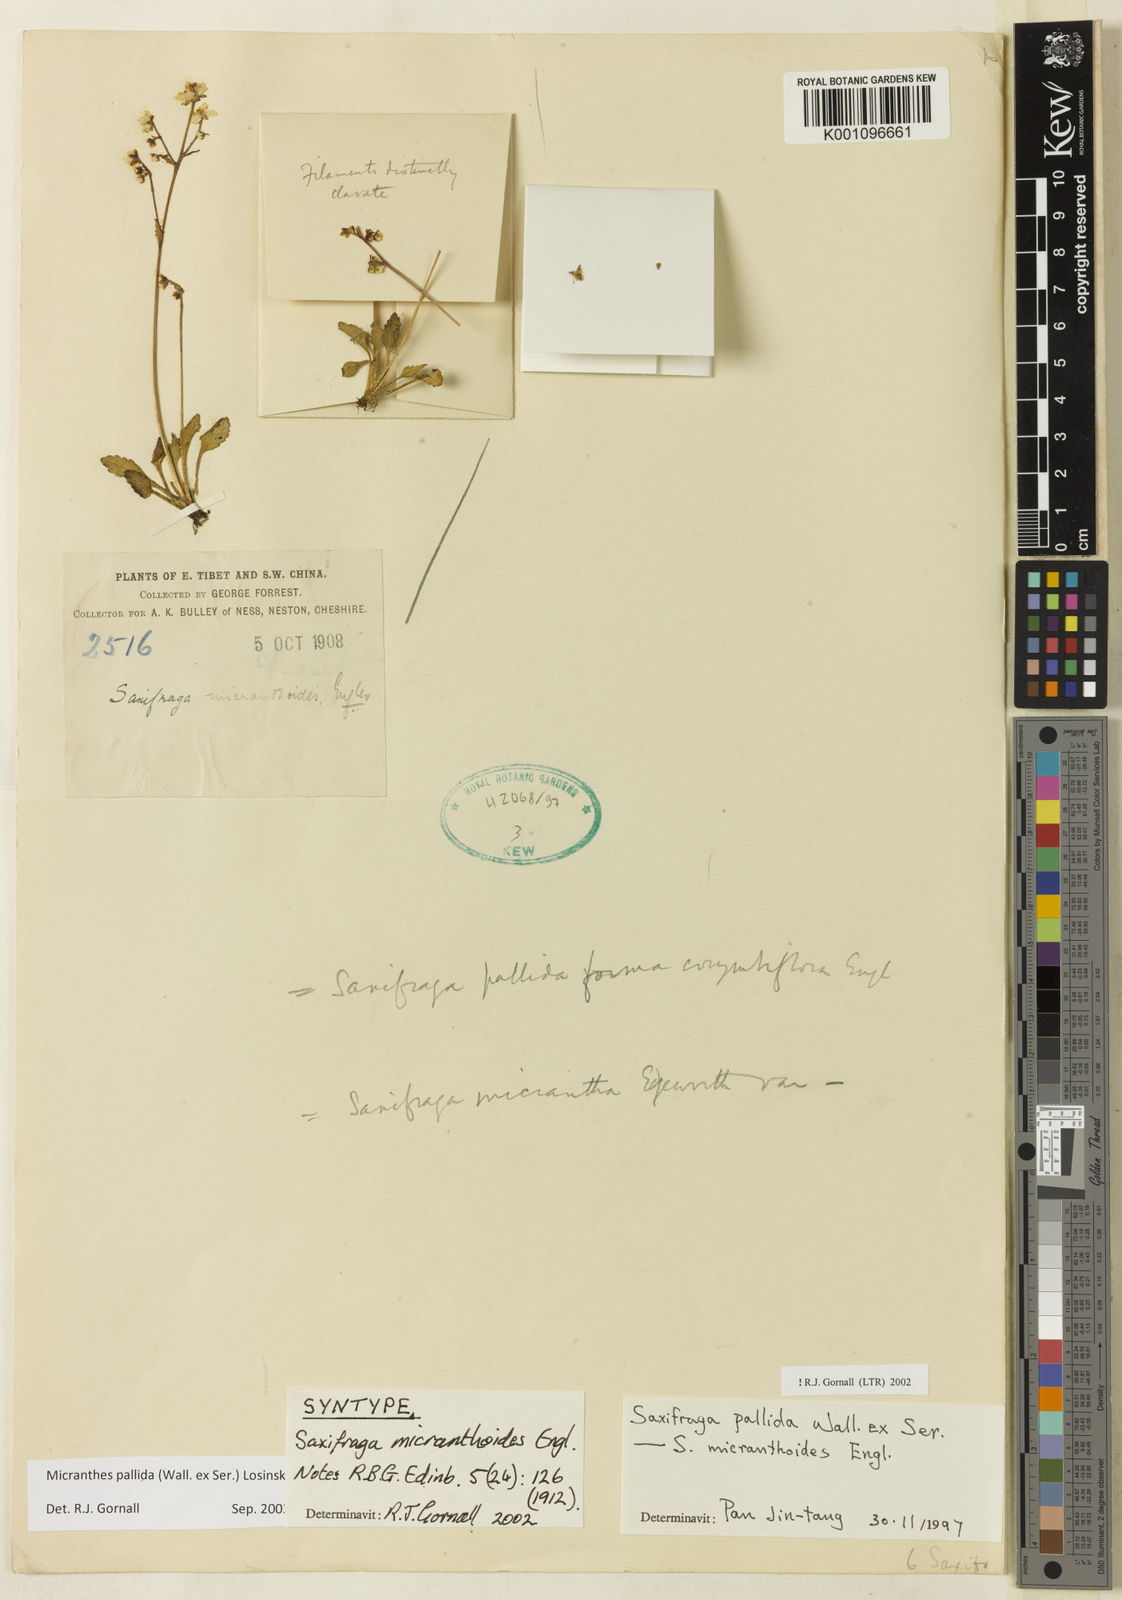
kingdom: Plantae
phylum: Tracheophyta
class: Magnoliopsida
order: Saxifragales
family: Saxifragaceae
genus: Micranthes
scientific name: Micranthes pallida
